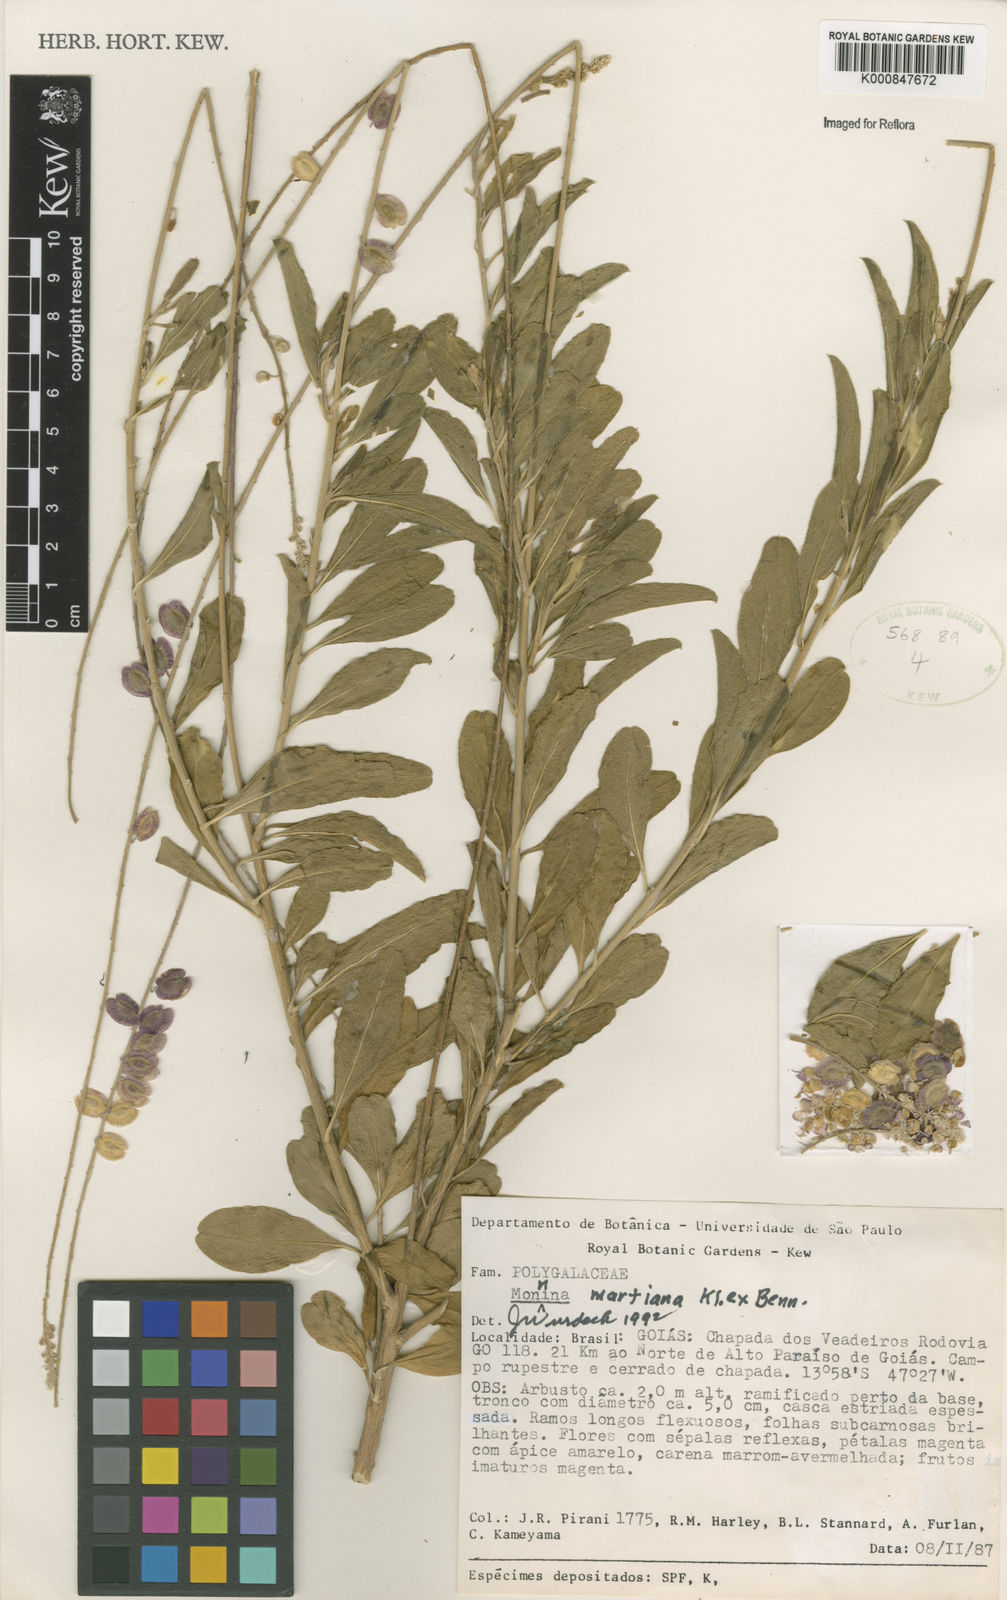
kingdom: Plantae
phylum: Tracheophyta
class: Magnoliopsida
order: Fabales
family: Polygalaceae
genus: Monnina
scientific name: Monnina martiana
